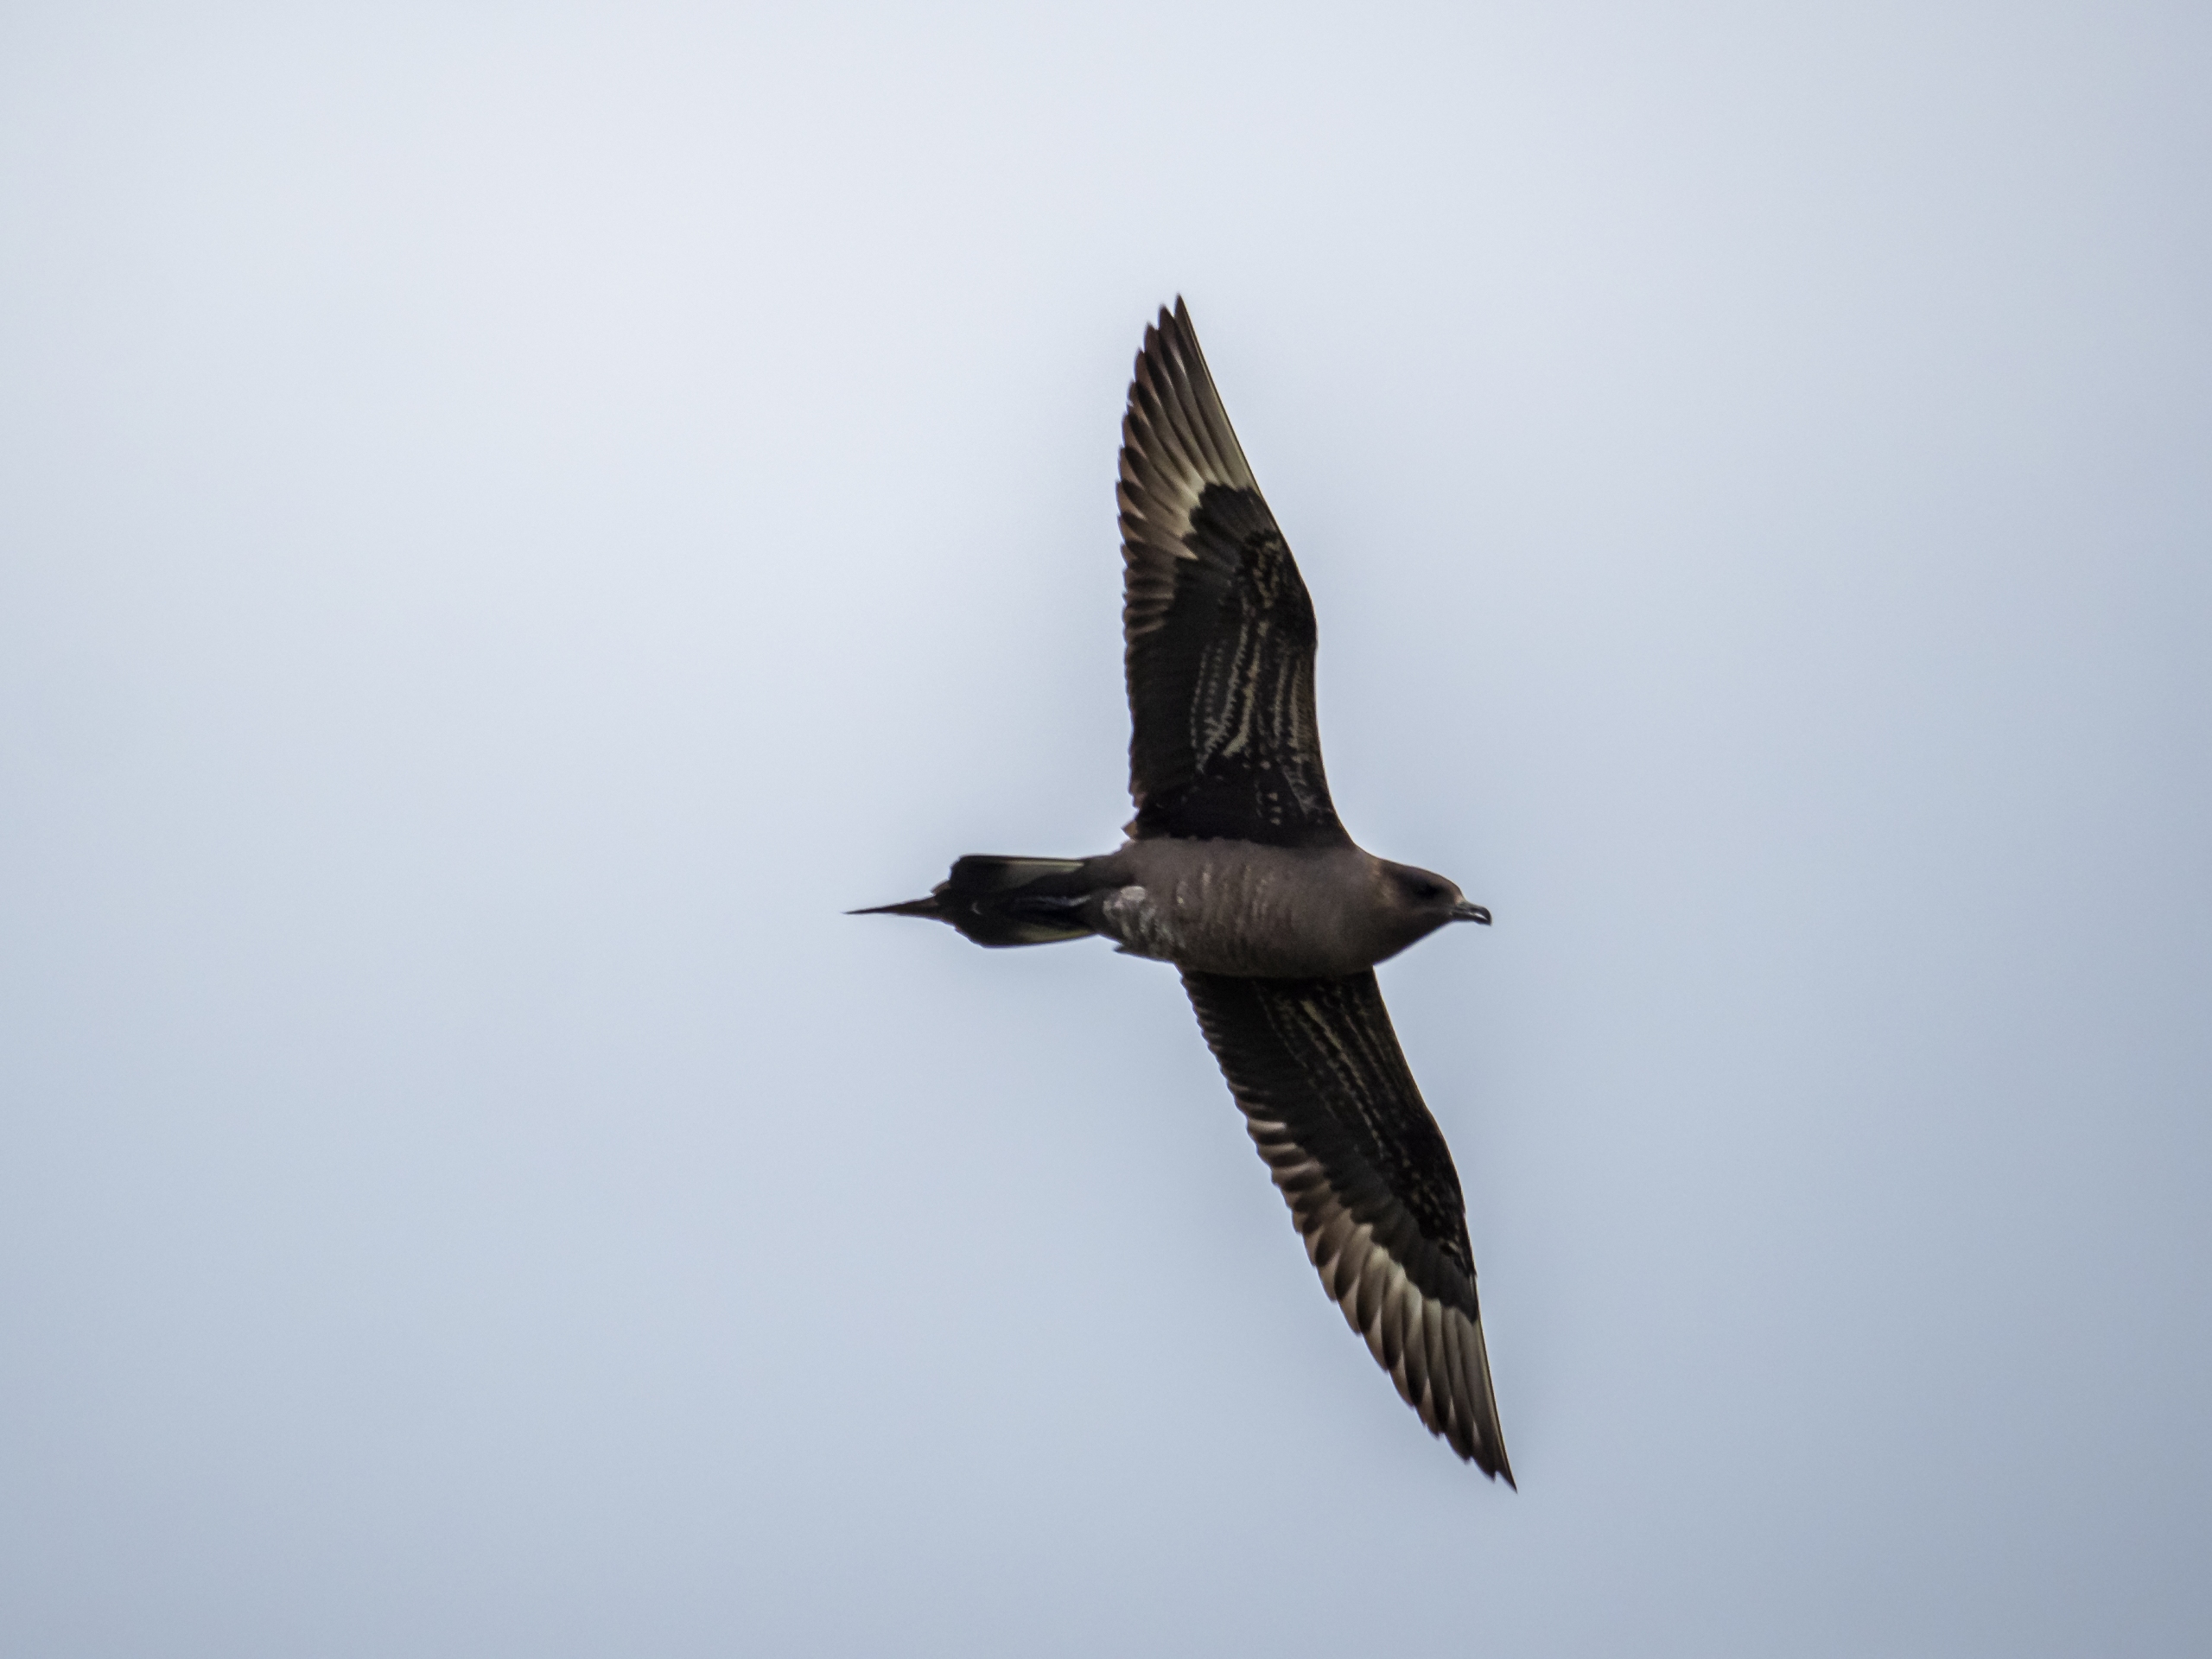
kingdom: Animalia
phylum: Chordata
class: Aves
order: Charadriiformes
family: Stercorariidae
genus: Stercorarius
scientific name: Stercorarius parasiticus
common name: Almindelig kjove
